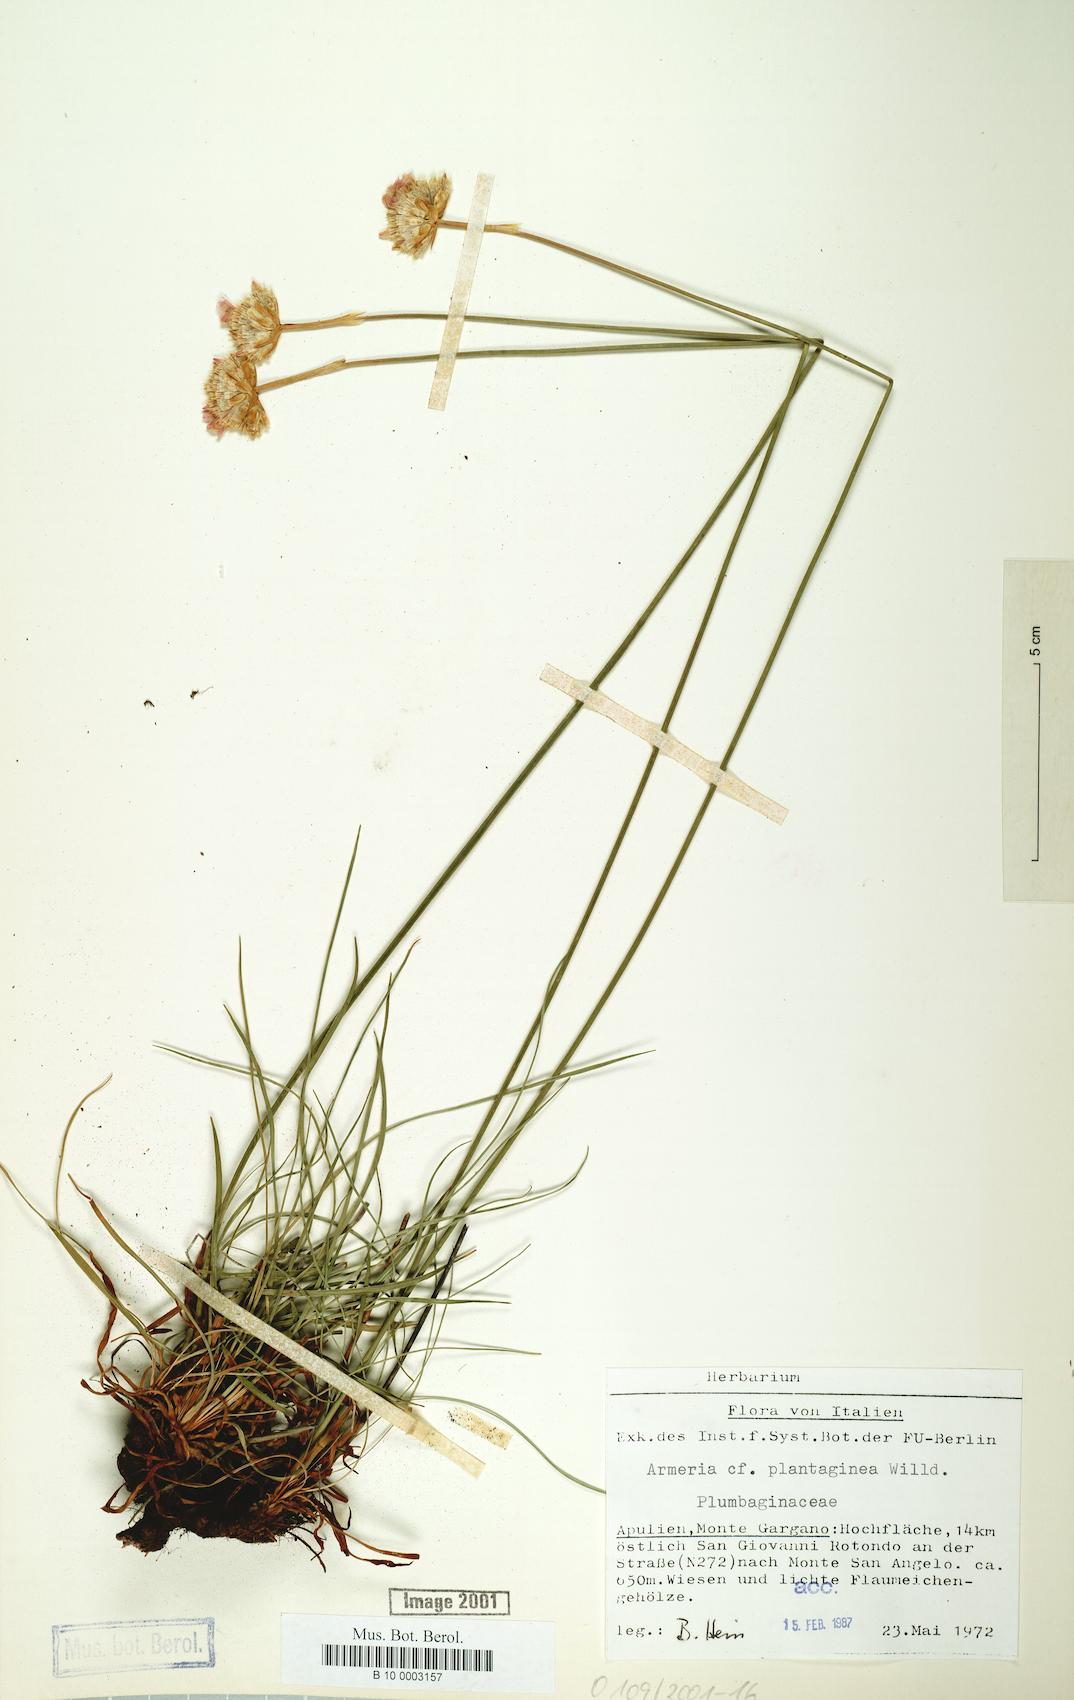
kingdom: Plantae
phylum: Tracheophyta
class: Magnoliopsida
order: Caryophyllales
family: Plumbaginaceae
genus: Armeria
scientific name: Armeria arenaria
